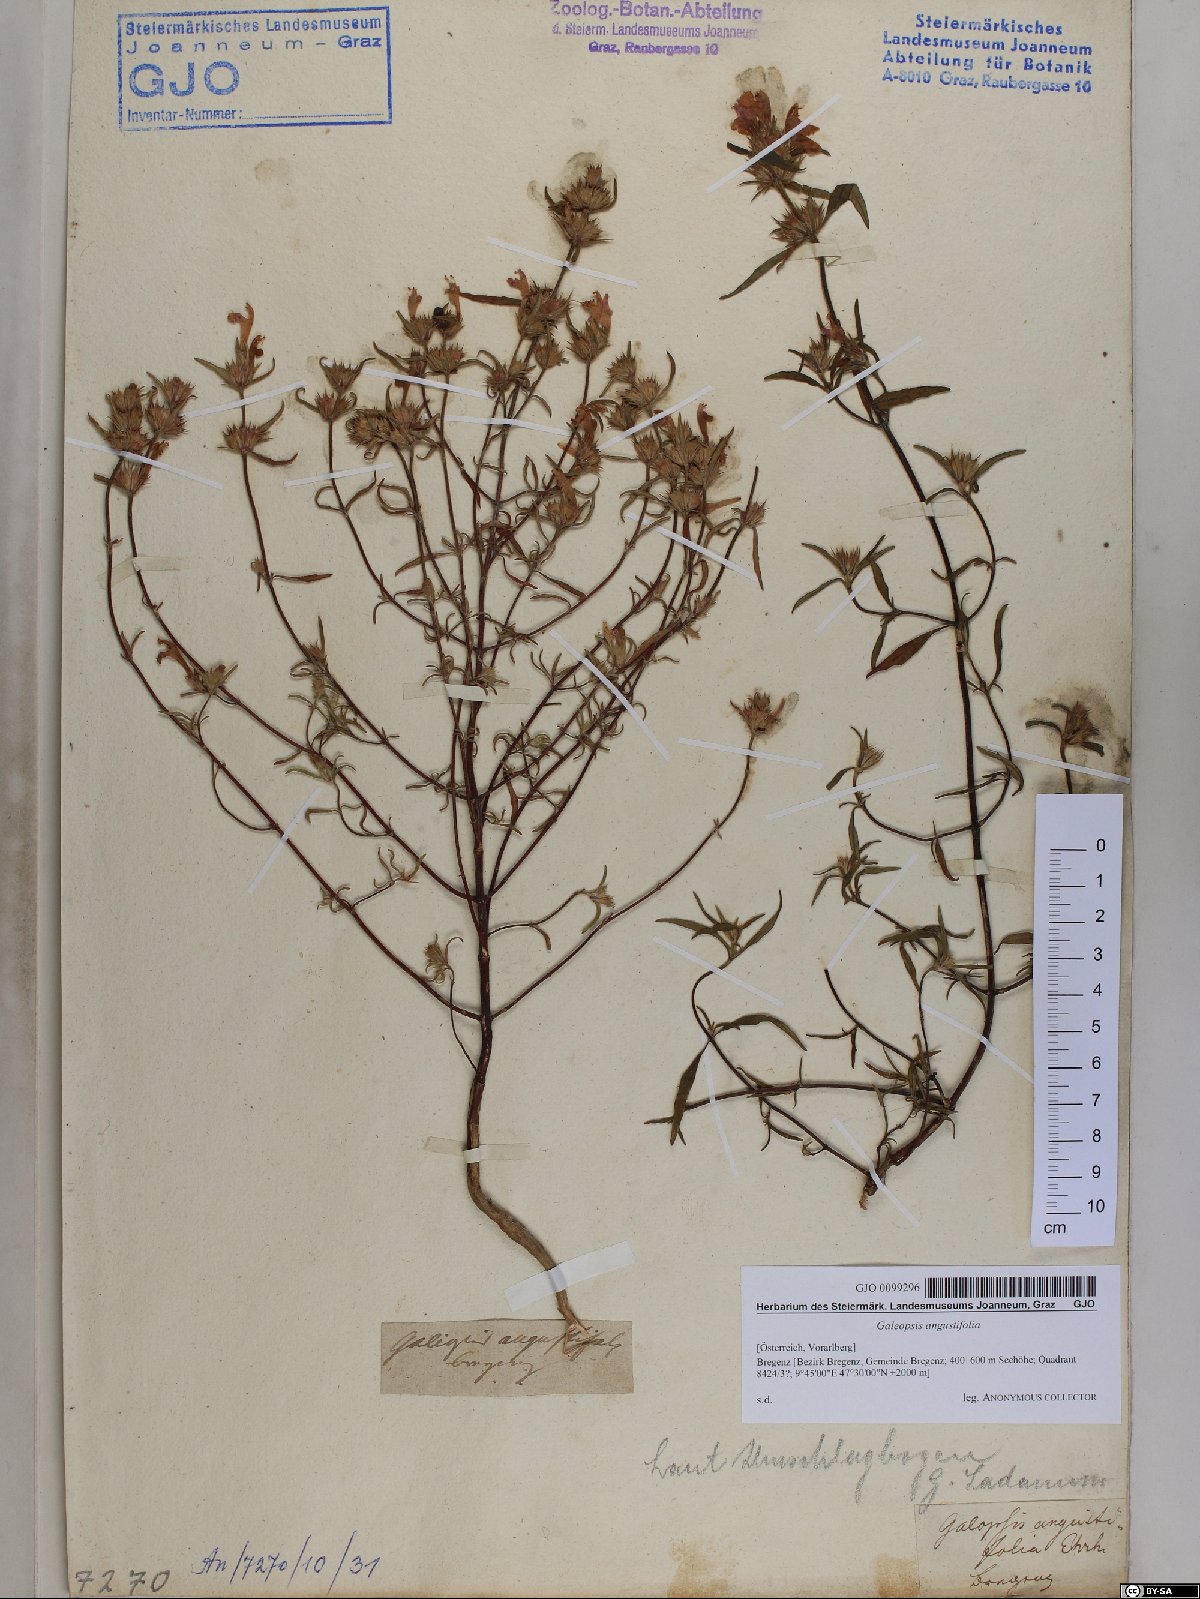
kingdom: Plantae
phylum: Tracheophyta
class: Magnoliopsida
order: Lamiales
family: Lamiaceae
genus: Galeopsis
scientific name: Galeopsis angustifolia
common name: Red hemp-nettle
